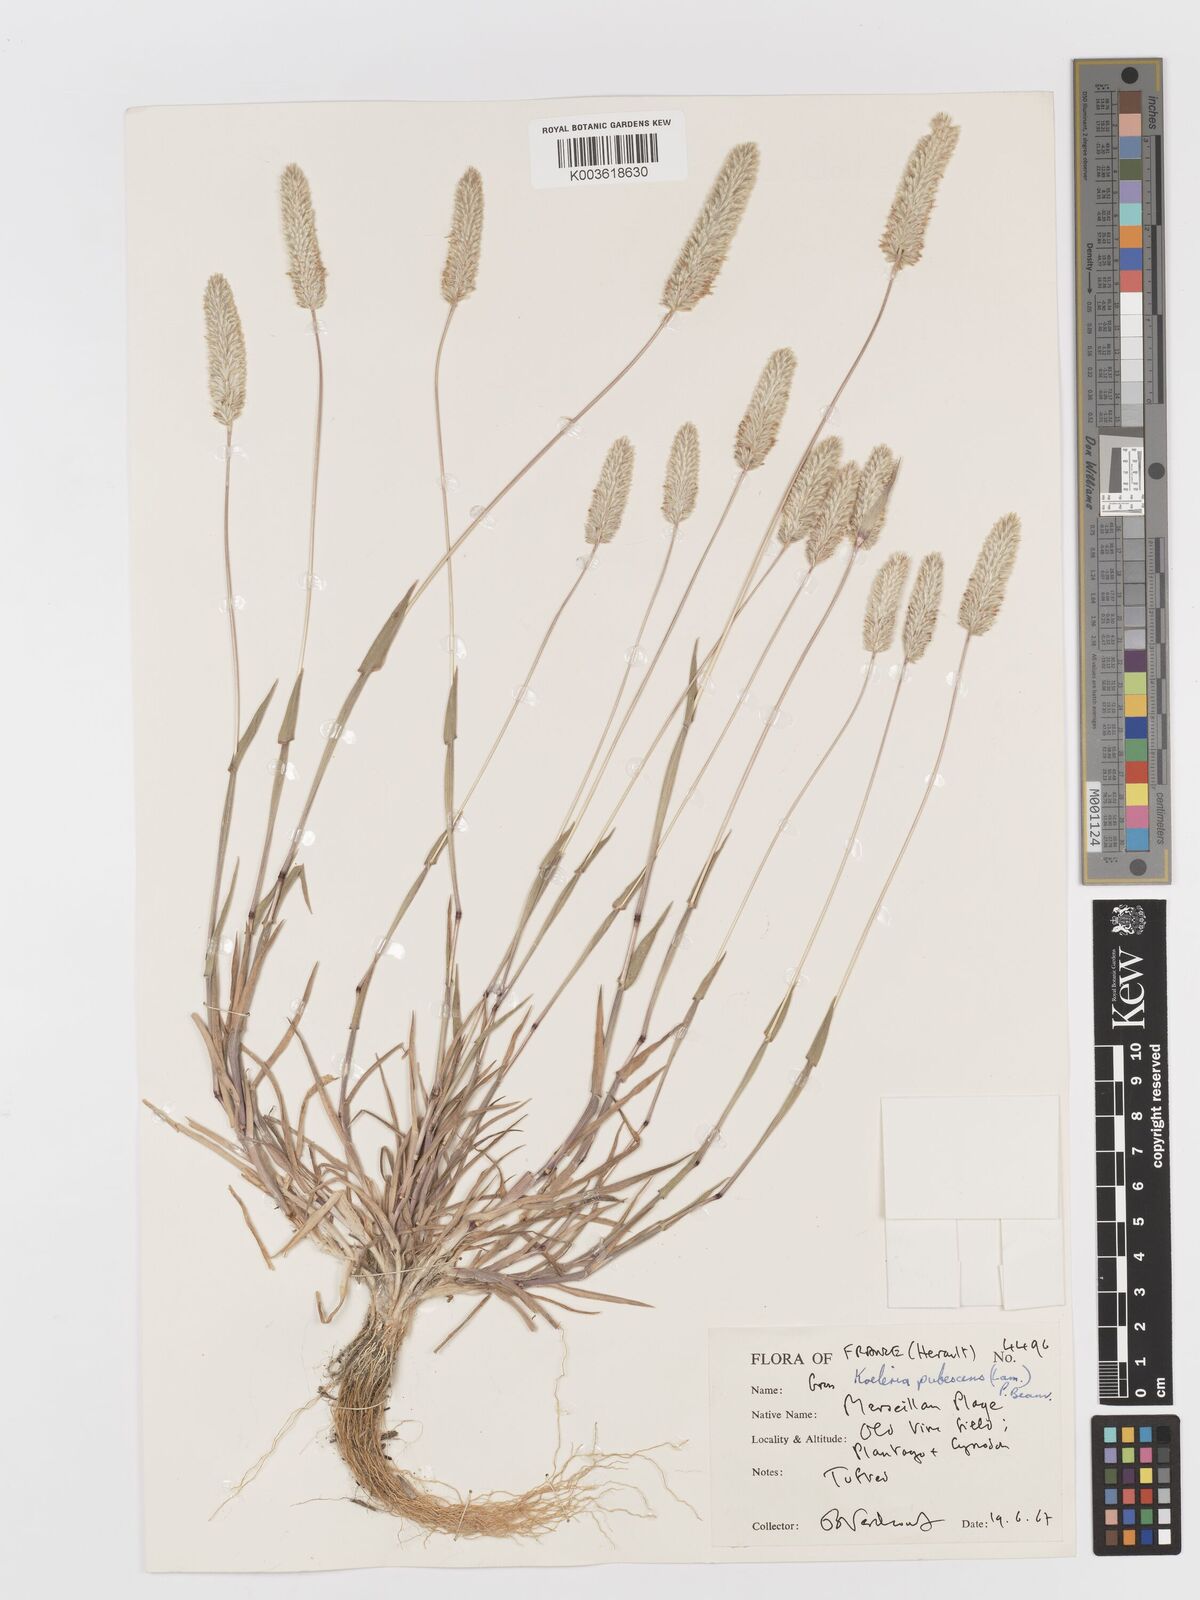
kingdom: Plantae
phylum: Tracheophyta
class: Liliopsida
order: Poales
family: Poaceae
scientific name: Poaceae
